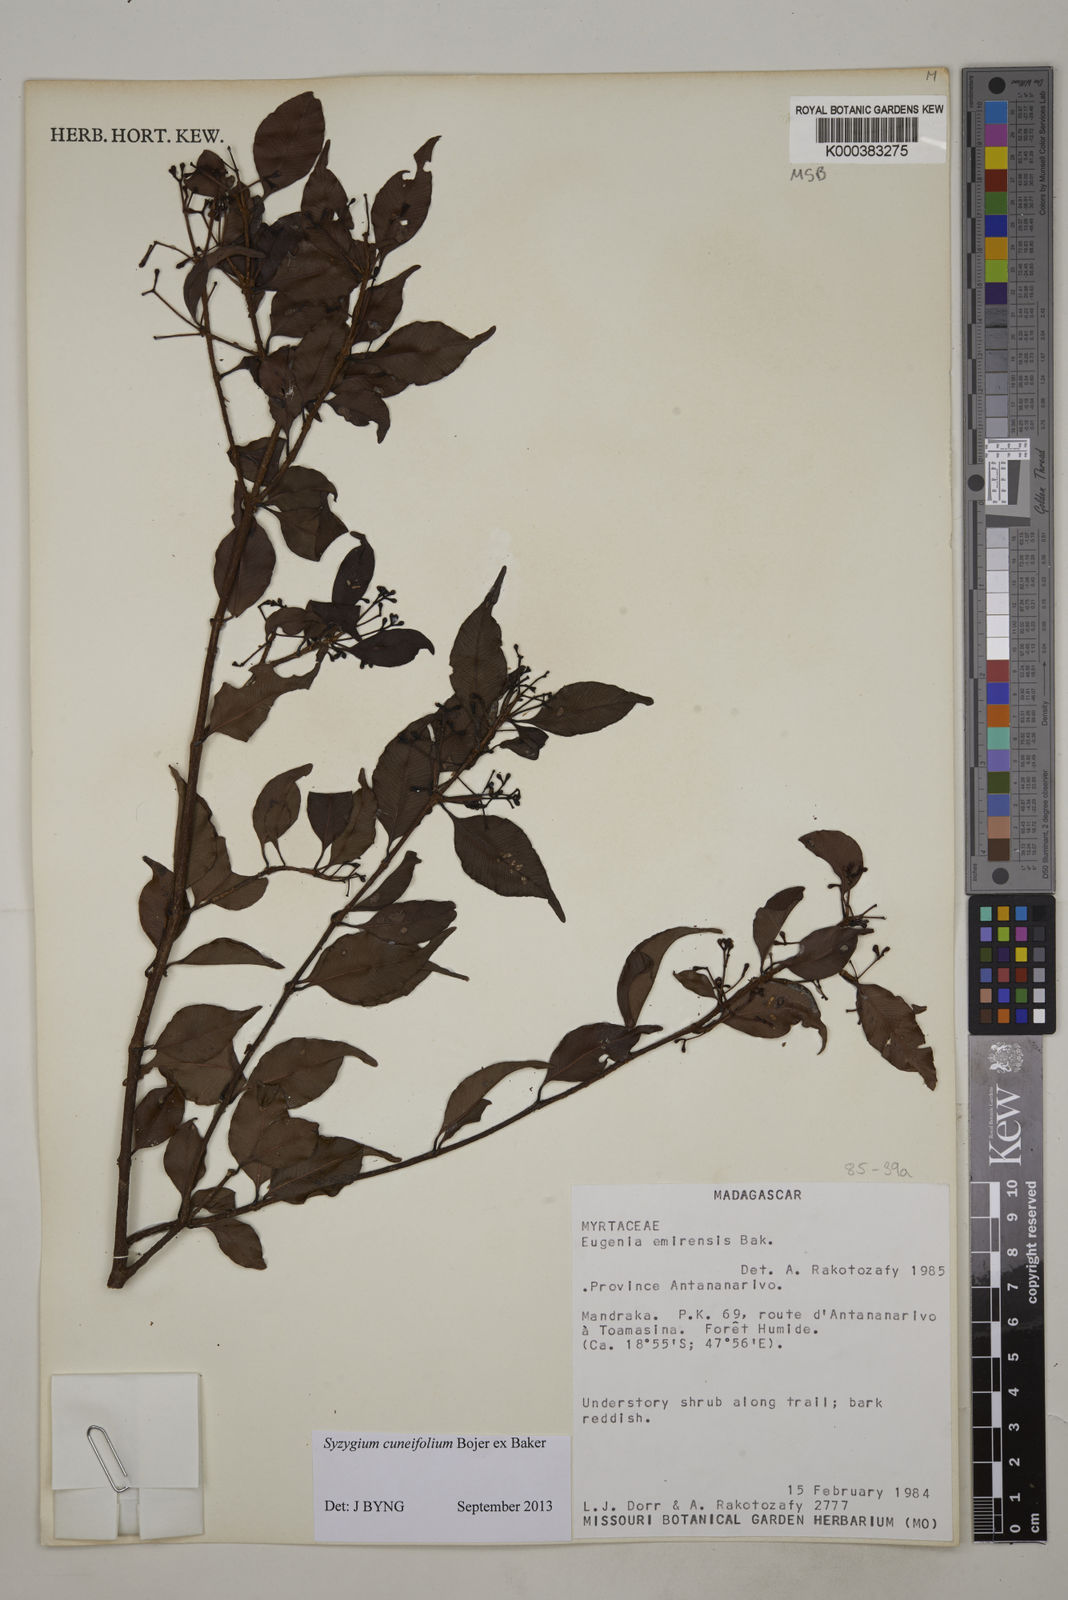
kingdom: Plantae
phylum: Tracheophyta
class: Magnoliopsida
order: Myrtales
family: Myrtaceae
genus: Syzygium
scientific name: Syzygium emirnense
